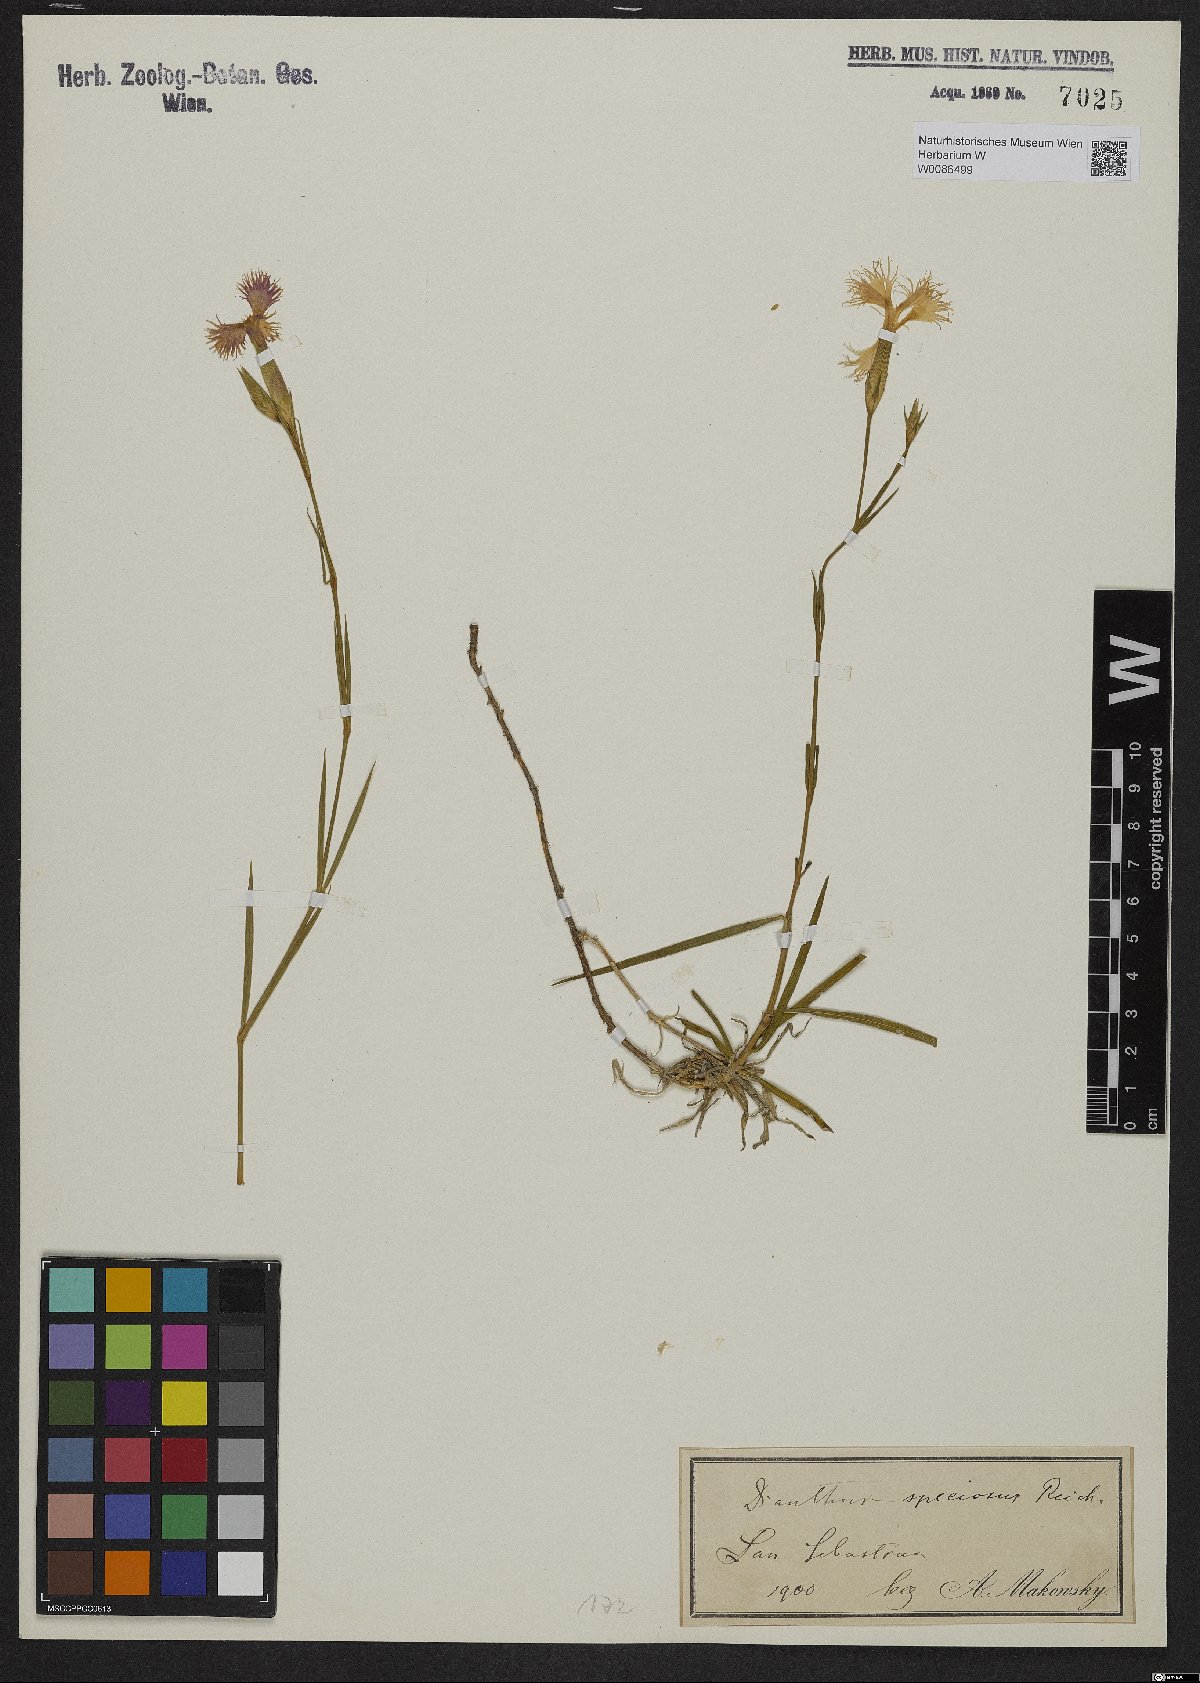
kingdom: Plantae
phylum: Tracheophyta
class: Magnoliopsida
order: Caryophyllales
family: Caryophyllaceae
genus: Dianthus
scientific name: Dianthus superbus
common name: Fringed pink
